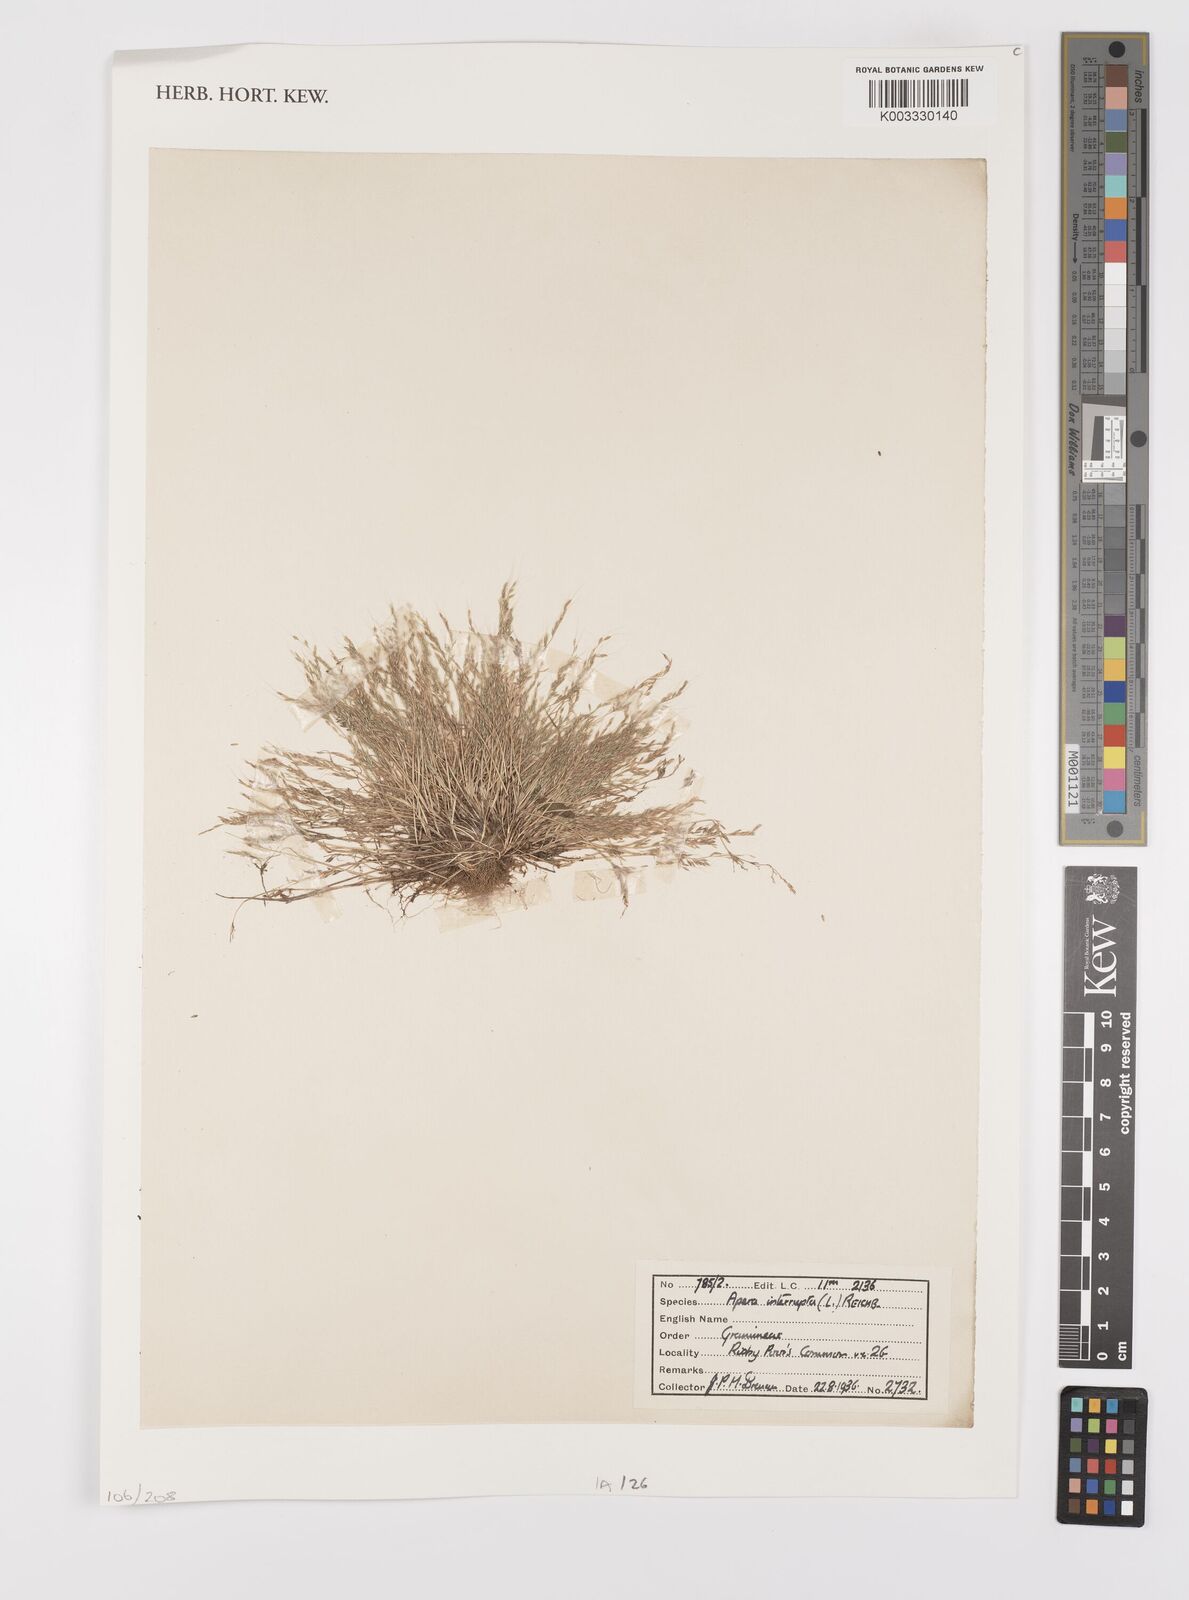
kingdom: Plantae
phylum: Tracheophyta
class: Liliopsida
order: Poales
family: Poaceae
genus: Apera
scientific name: Apera interrupta
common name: Dense silky-bent
